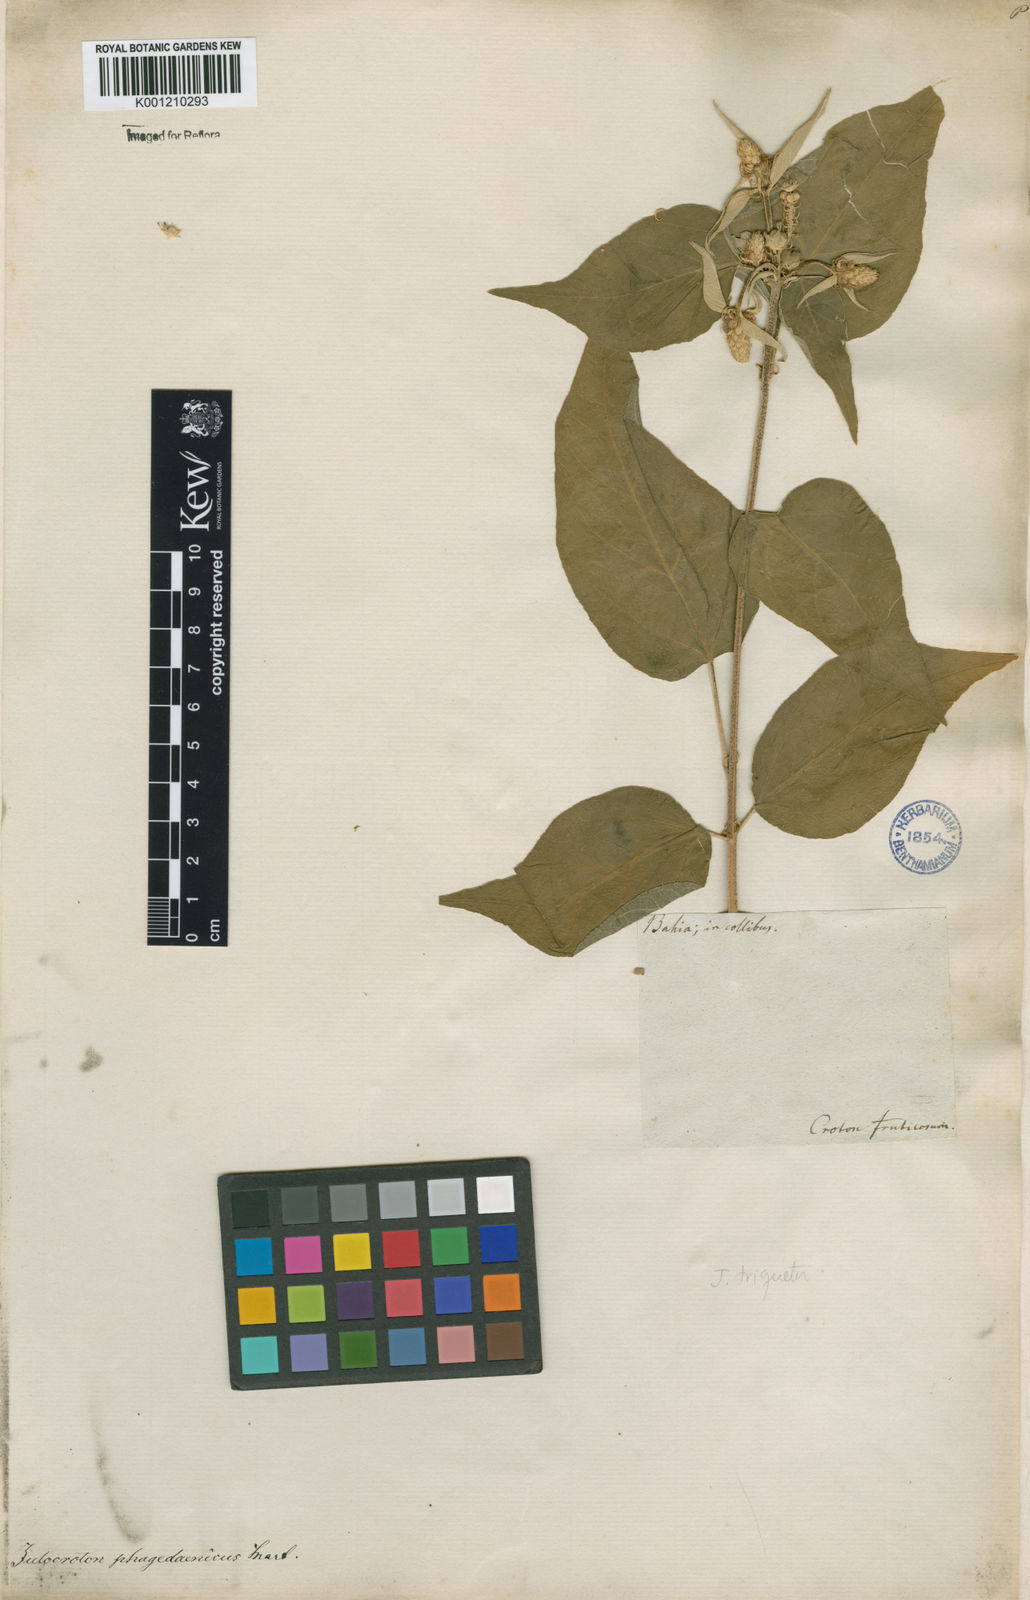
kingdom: Plantae
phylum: Tracheophyta
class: Magnoliopsida
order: Malpighiales
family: Euphorbiaceae
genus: Croton
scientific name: Croton triqueter
